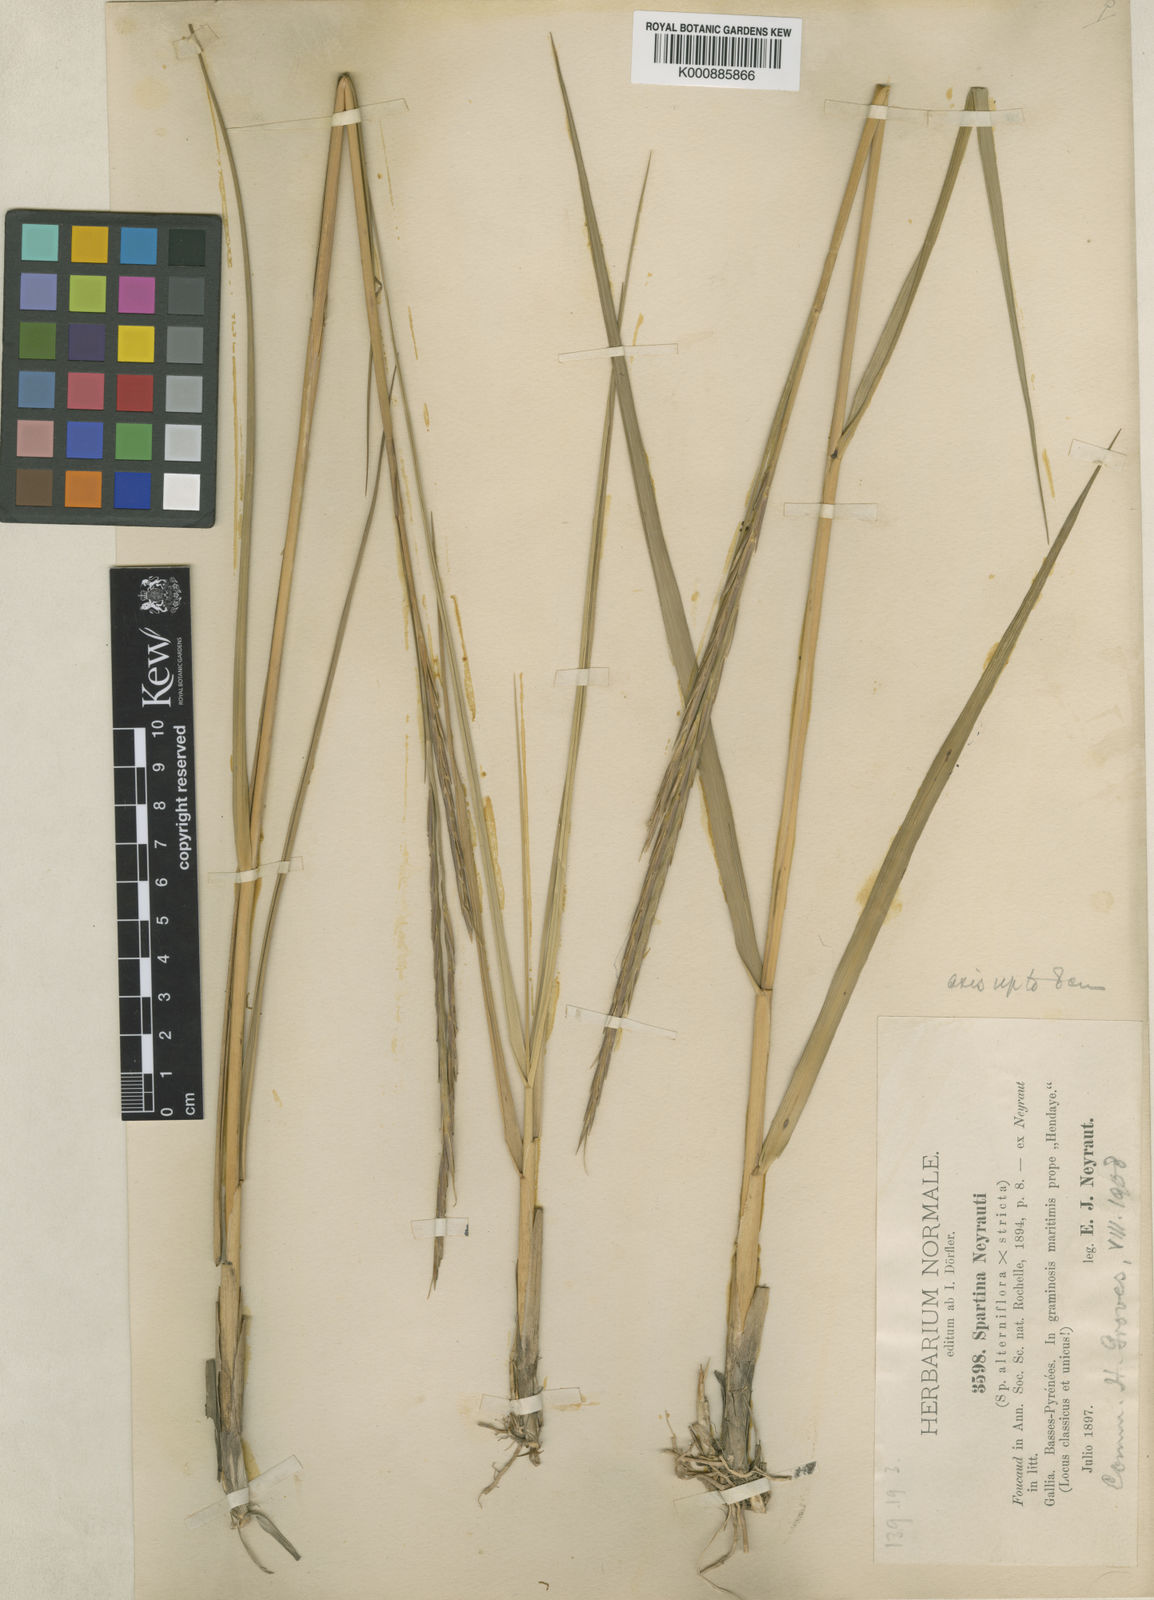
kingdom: Plantae
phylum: Tracheophyta
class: Liliopsida
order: Poales
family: Poaceae
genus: Sporobolus
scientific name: Sporobolus townsendii
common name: Townsend's cordgrass
